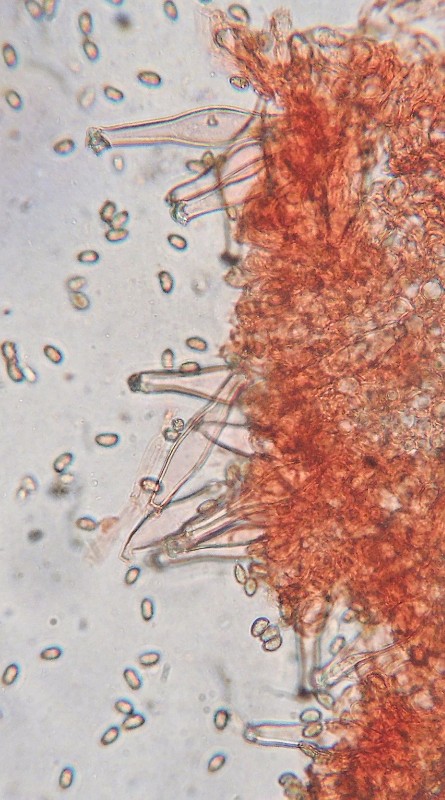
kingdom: Fungi
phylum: Basidiomycota
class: Agaricomycetes
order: Agaricales
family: Inocybaceae
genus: Inocybe
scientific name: Inocybe
